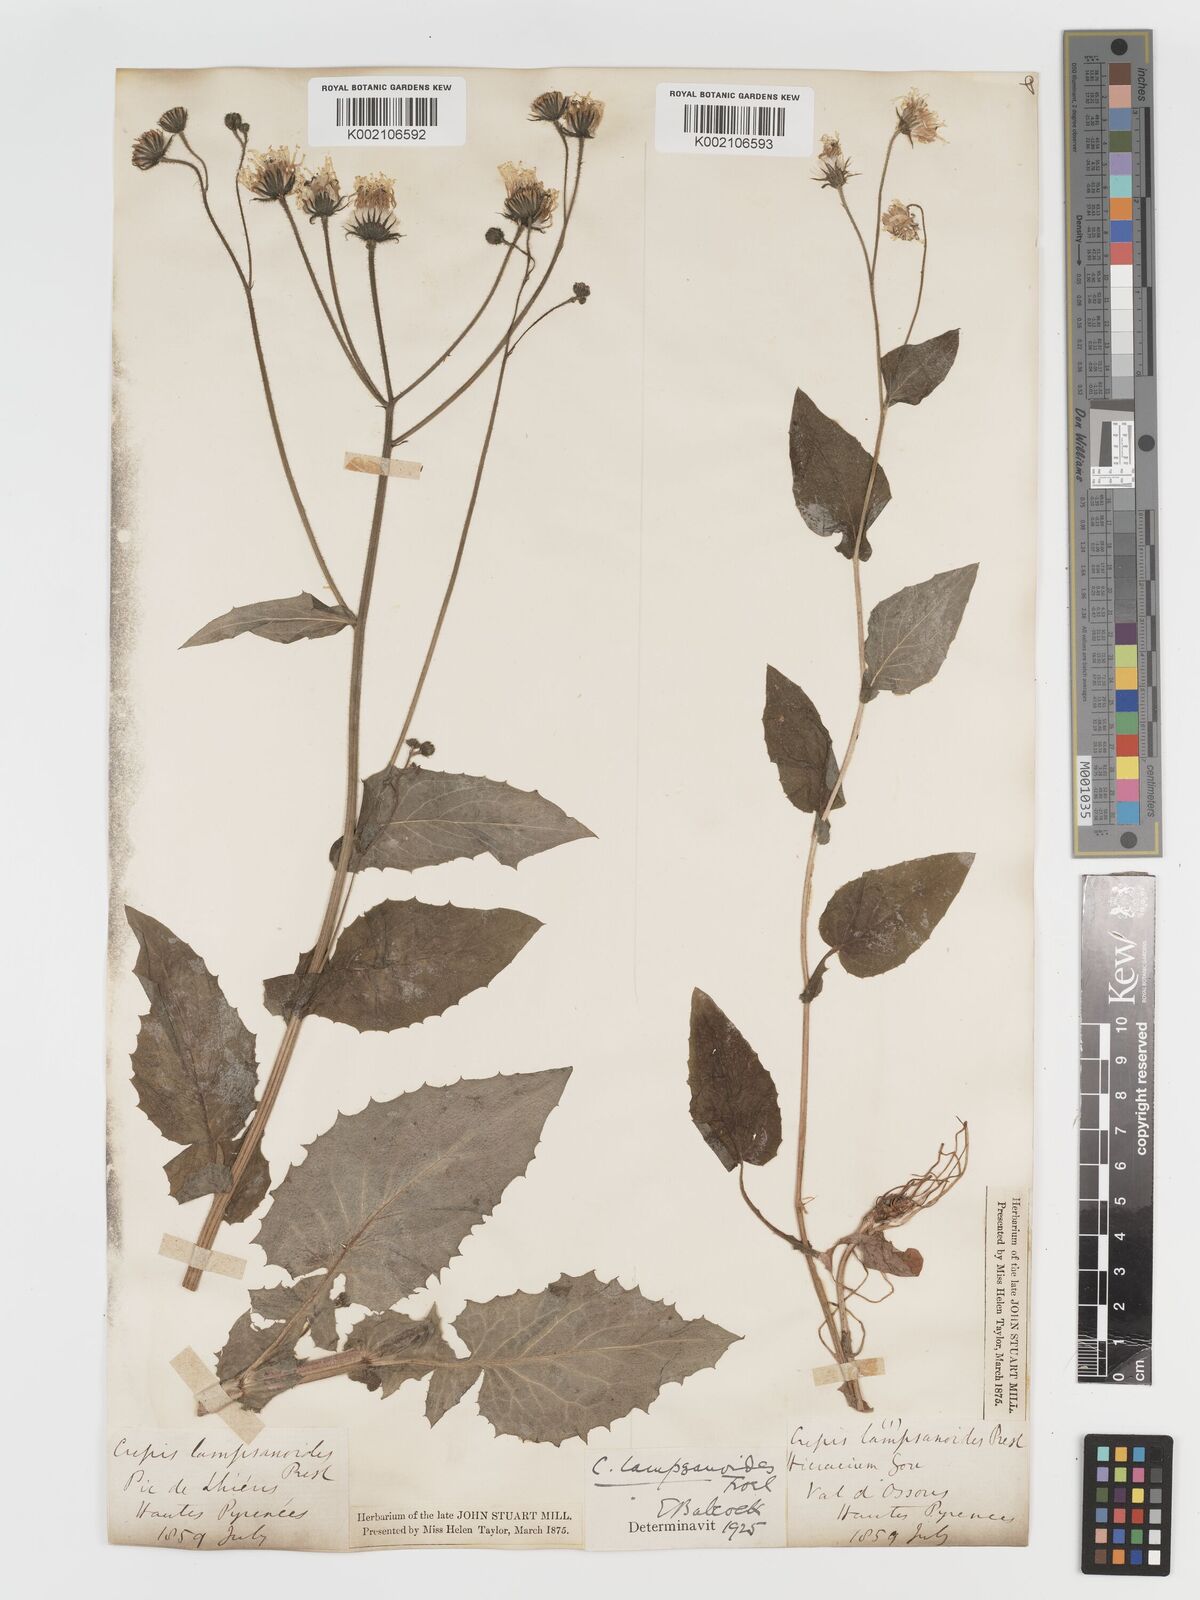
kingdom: Plantae
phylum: Tracheophyta
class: Magnoliopsida
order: Asterales
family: Asteraceae
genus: Crepis
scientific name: Crepis lampsanoides
